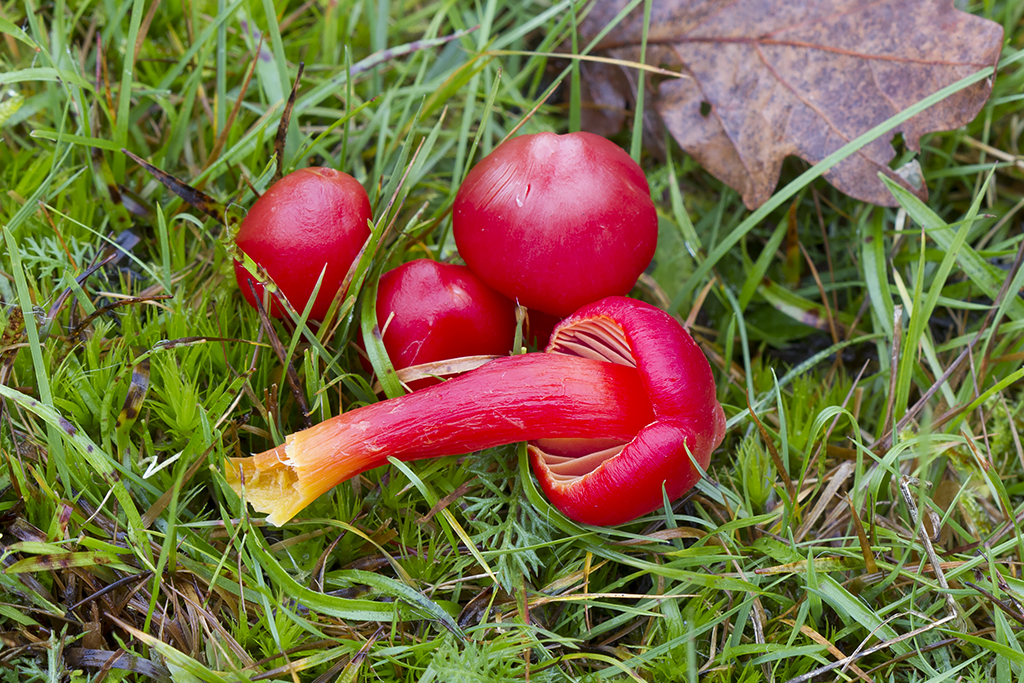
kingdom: Fungi
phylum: Basidiomycota
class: Agaricomycetes
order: Agaricales
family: Hygrophoraceae
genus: Hygrocybe
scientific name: Hygrocybe coccinea
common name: cinnober-vokshat
